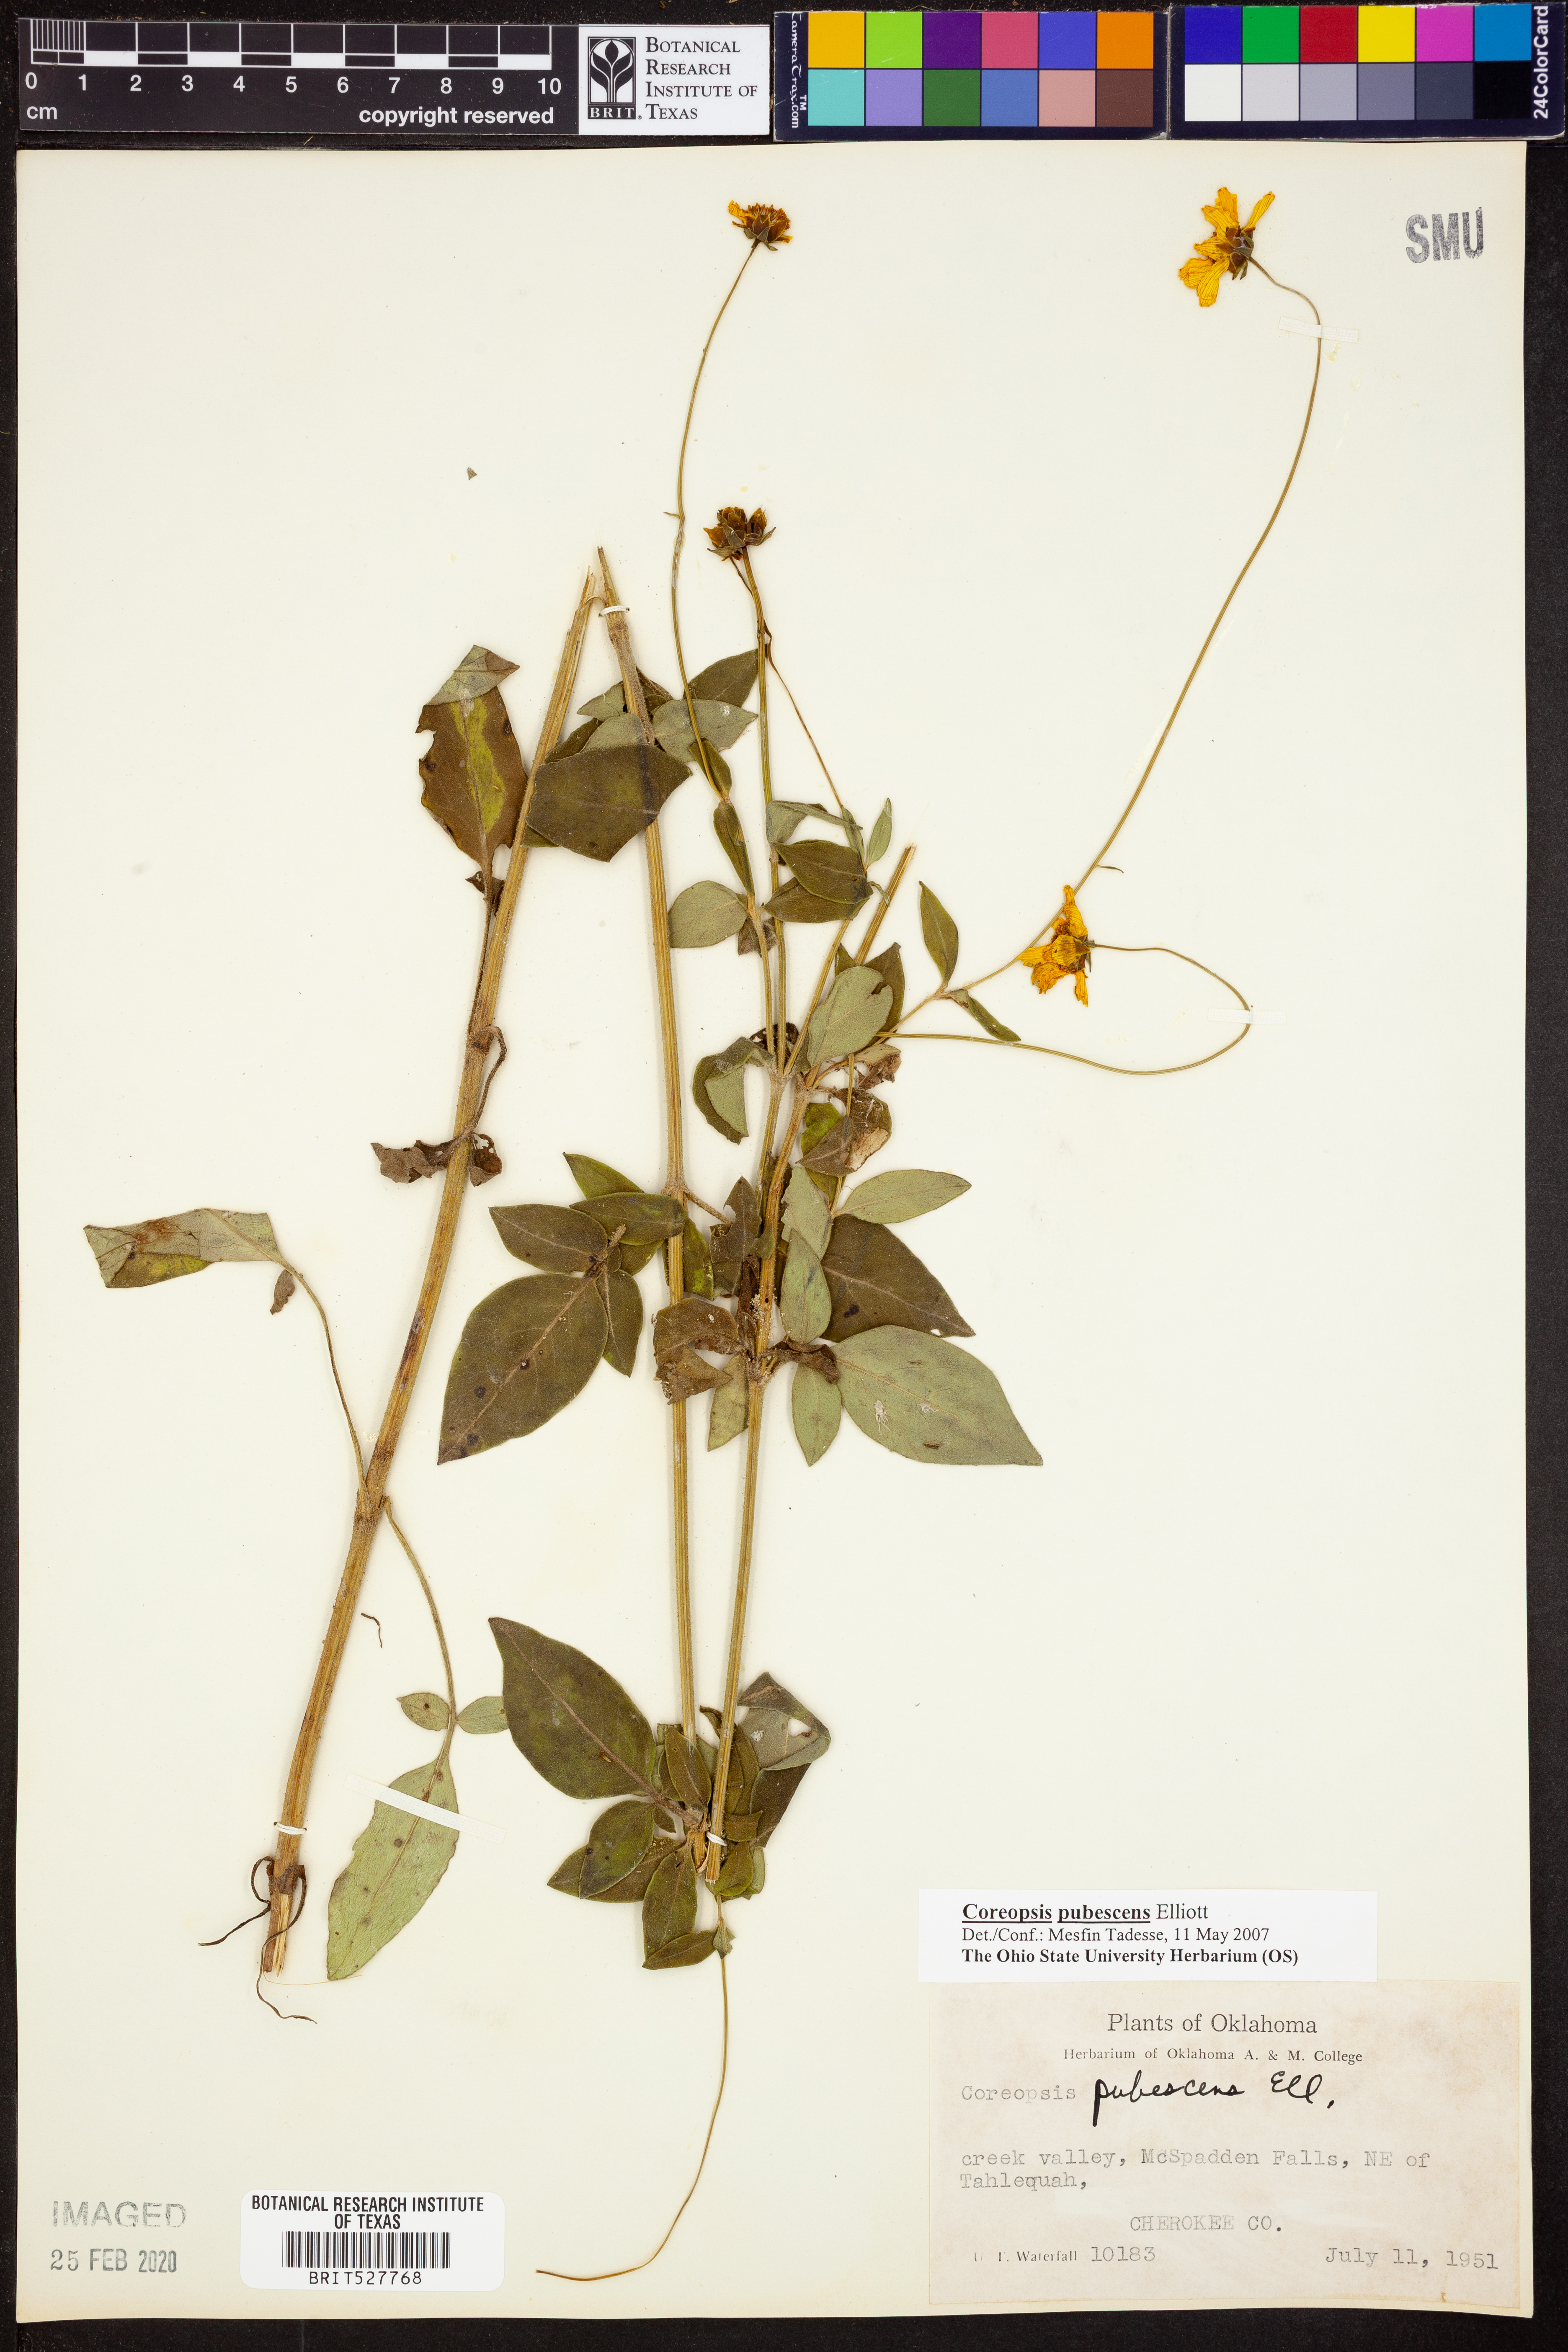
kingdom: Plantae
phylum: Tracheophyta
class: Magnoliopsida
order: Asterales
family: Asteraceae
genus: Coreopsis
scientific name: Coreopsis pubescens
